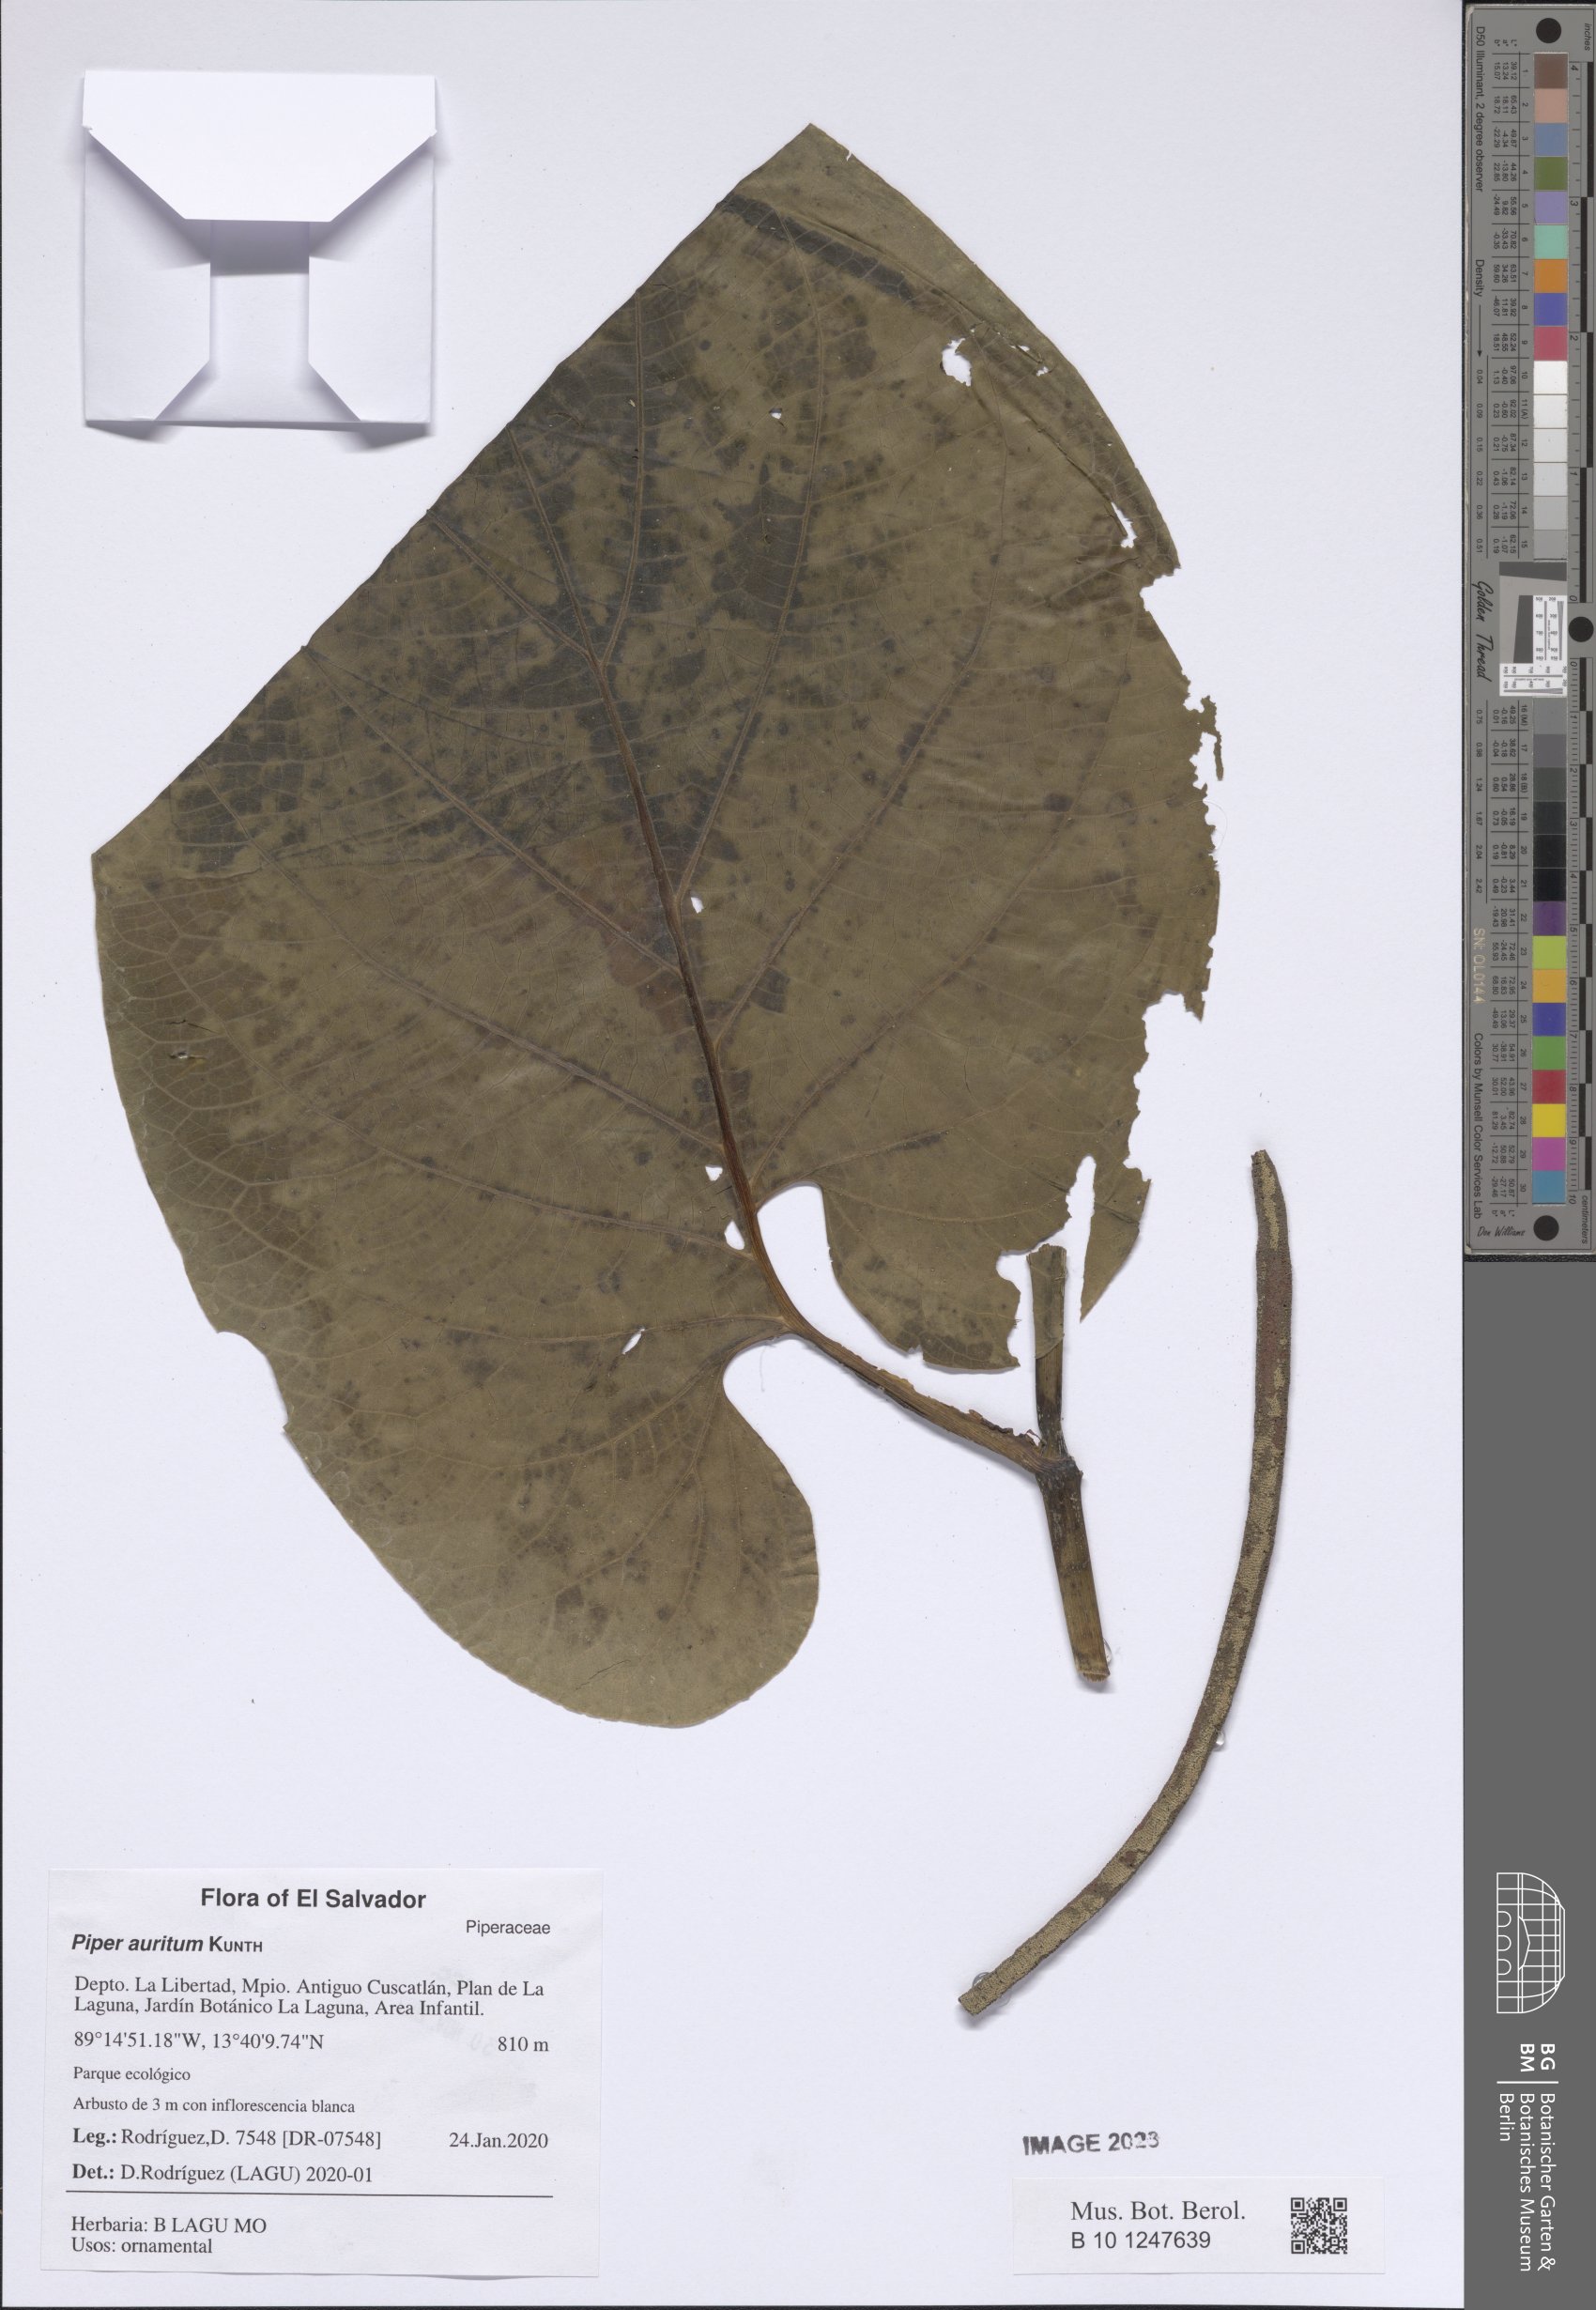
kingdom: Plantae
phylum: Tracheophyta
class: Magnoliopsida
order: Piperales
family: Piperaceae
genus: Piper
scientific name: Piper auritum
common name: Vera cruz pepper
